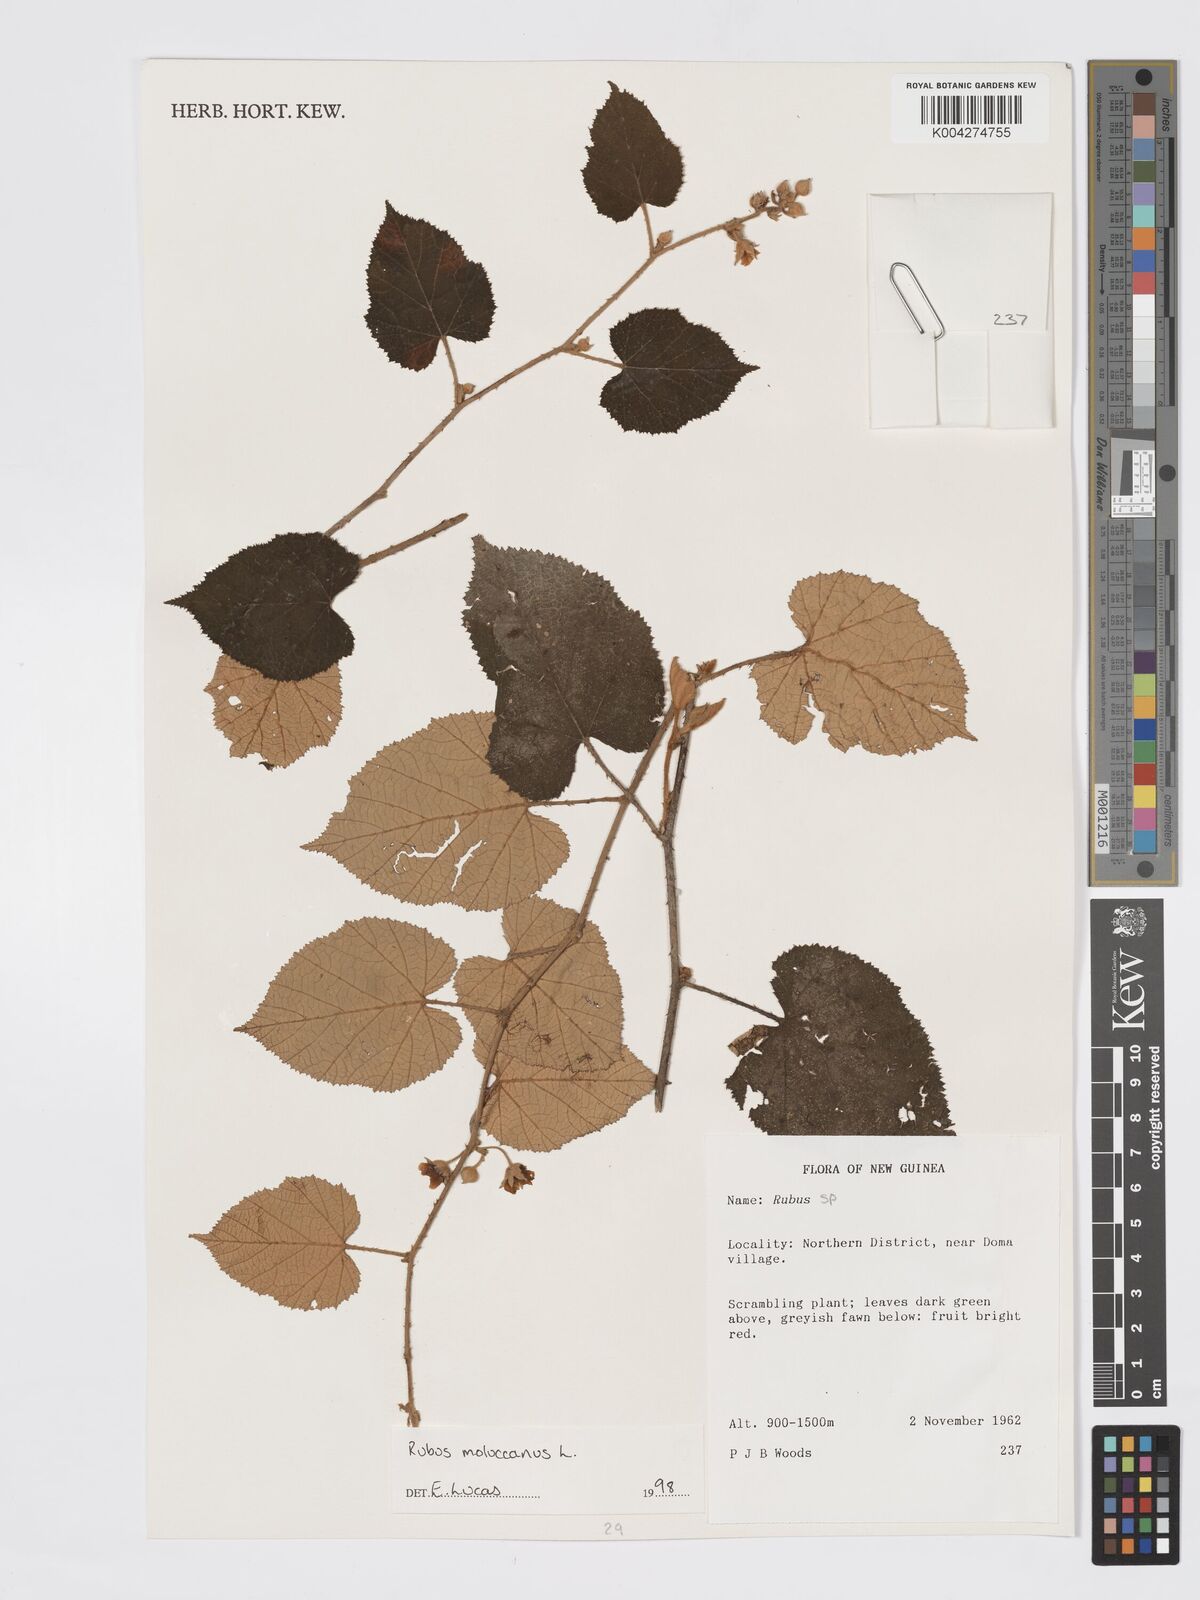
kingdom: Plantae
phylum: Tracheophyta
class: Magnoliopsida
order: Rosales
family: Rosaceae
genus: Rubus
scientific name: Rubus moluccanus
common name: Wild raspberry
